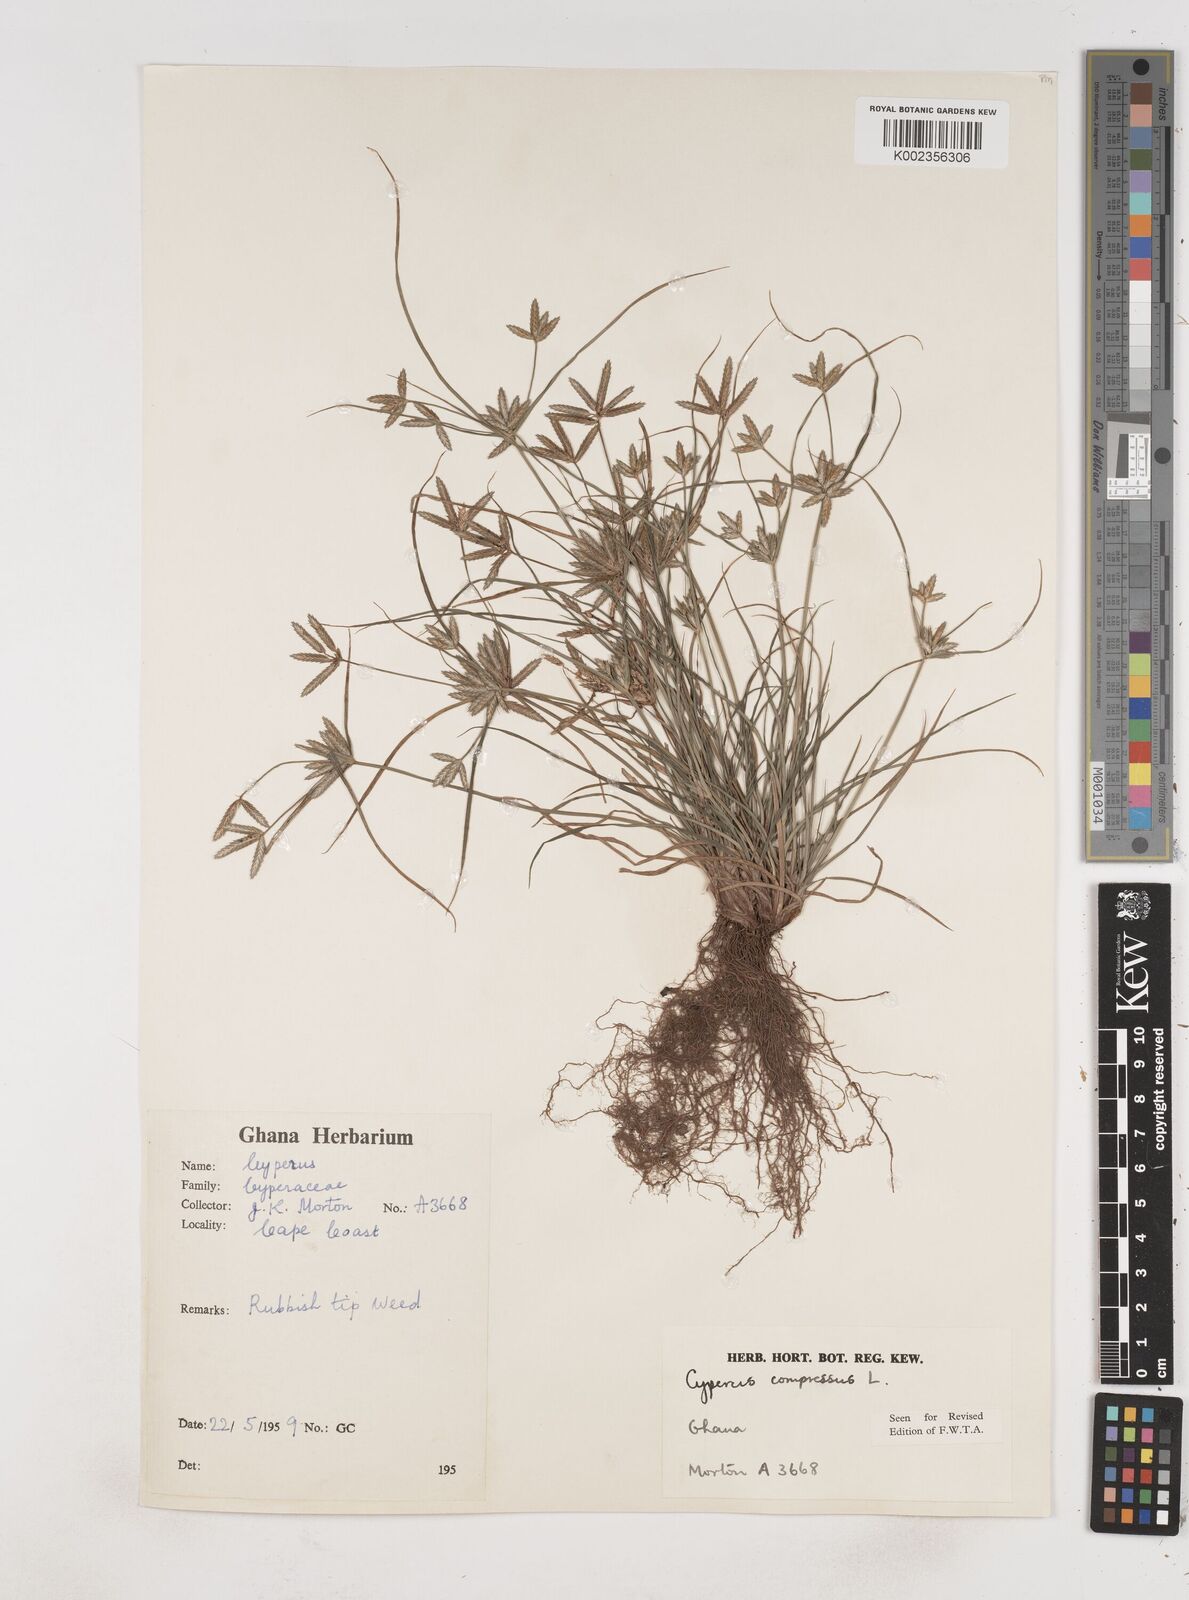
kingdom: Plantae
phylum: Tracheophyta
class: Liliopsida
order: Poales
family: Cyperaceae
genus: Cyperus
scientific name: Cyperus compressus
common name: Poorland flatsedge
